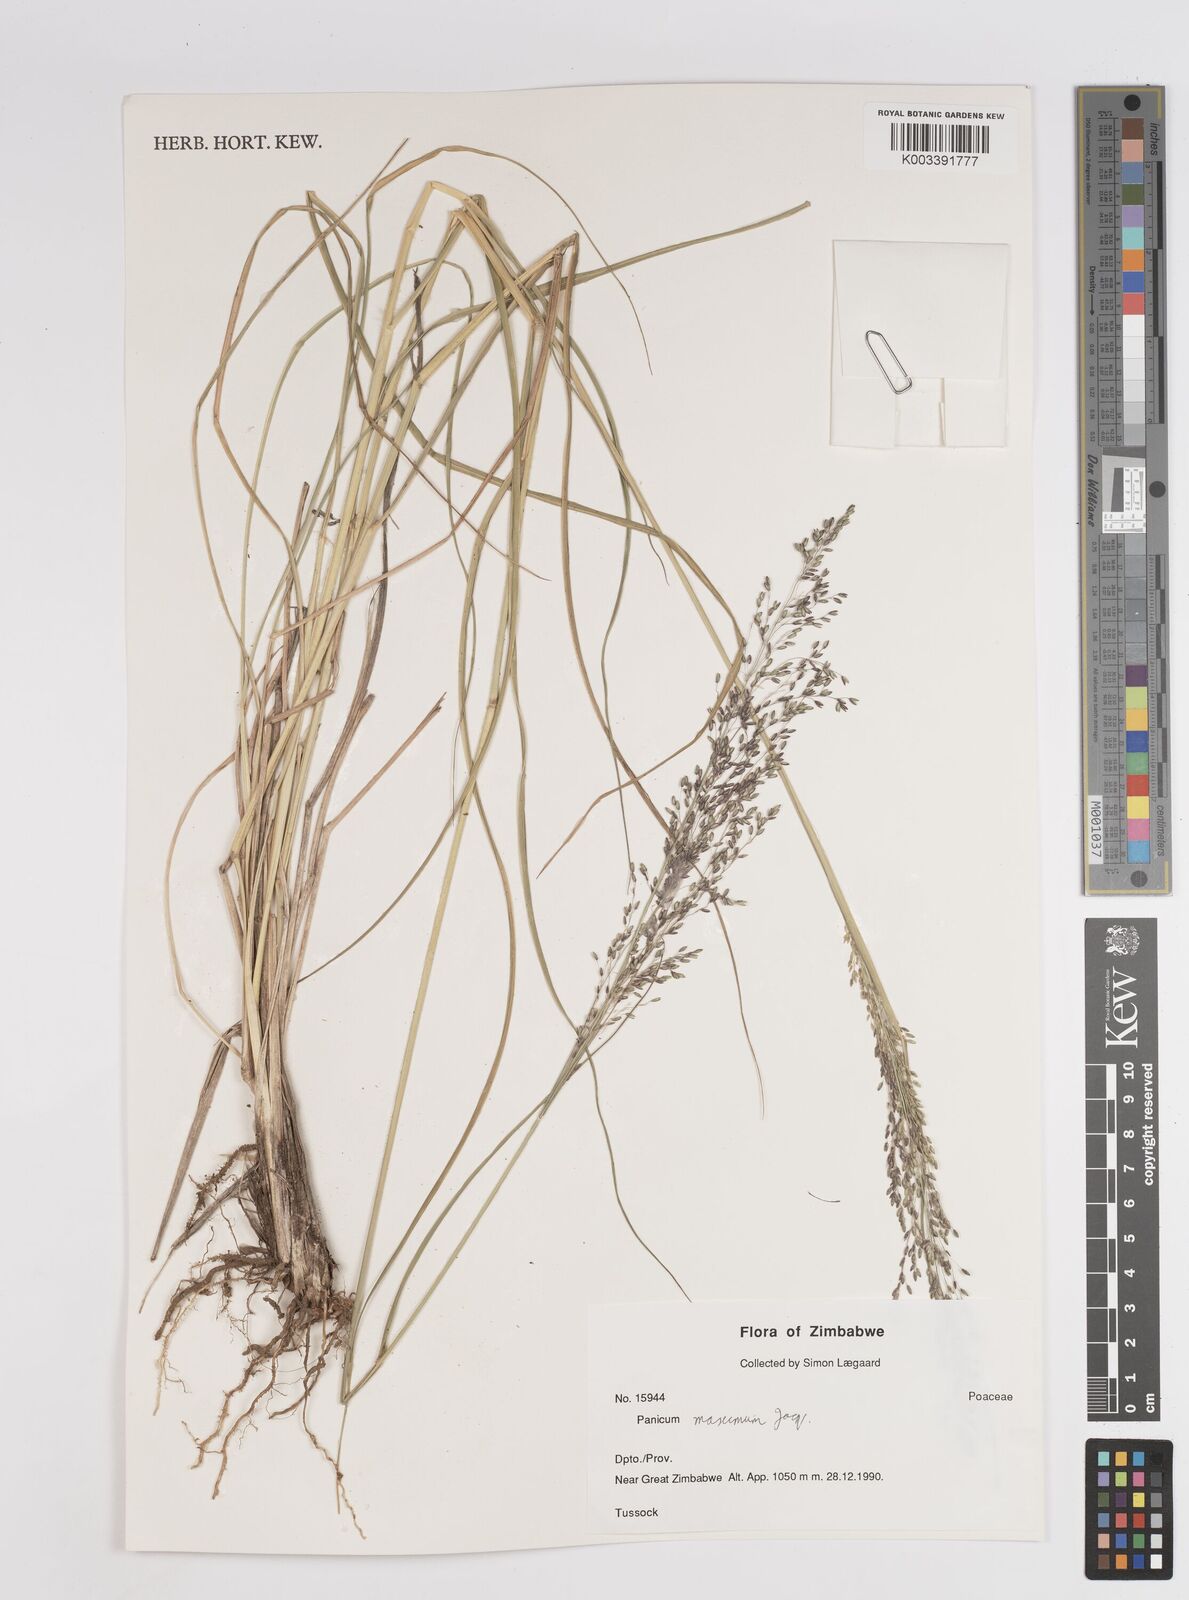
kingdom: Plantae
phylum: Tracheophyta
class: Liliopsida
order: Poales
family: Poaceae
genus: Megathyrsus
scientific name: Megathyrsus maximus
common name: Guineagrass
